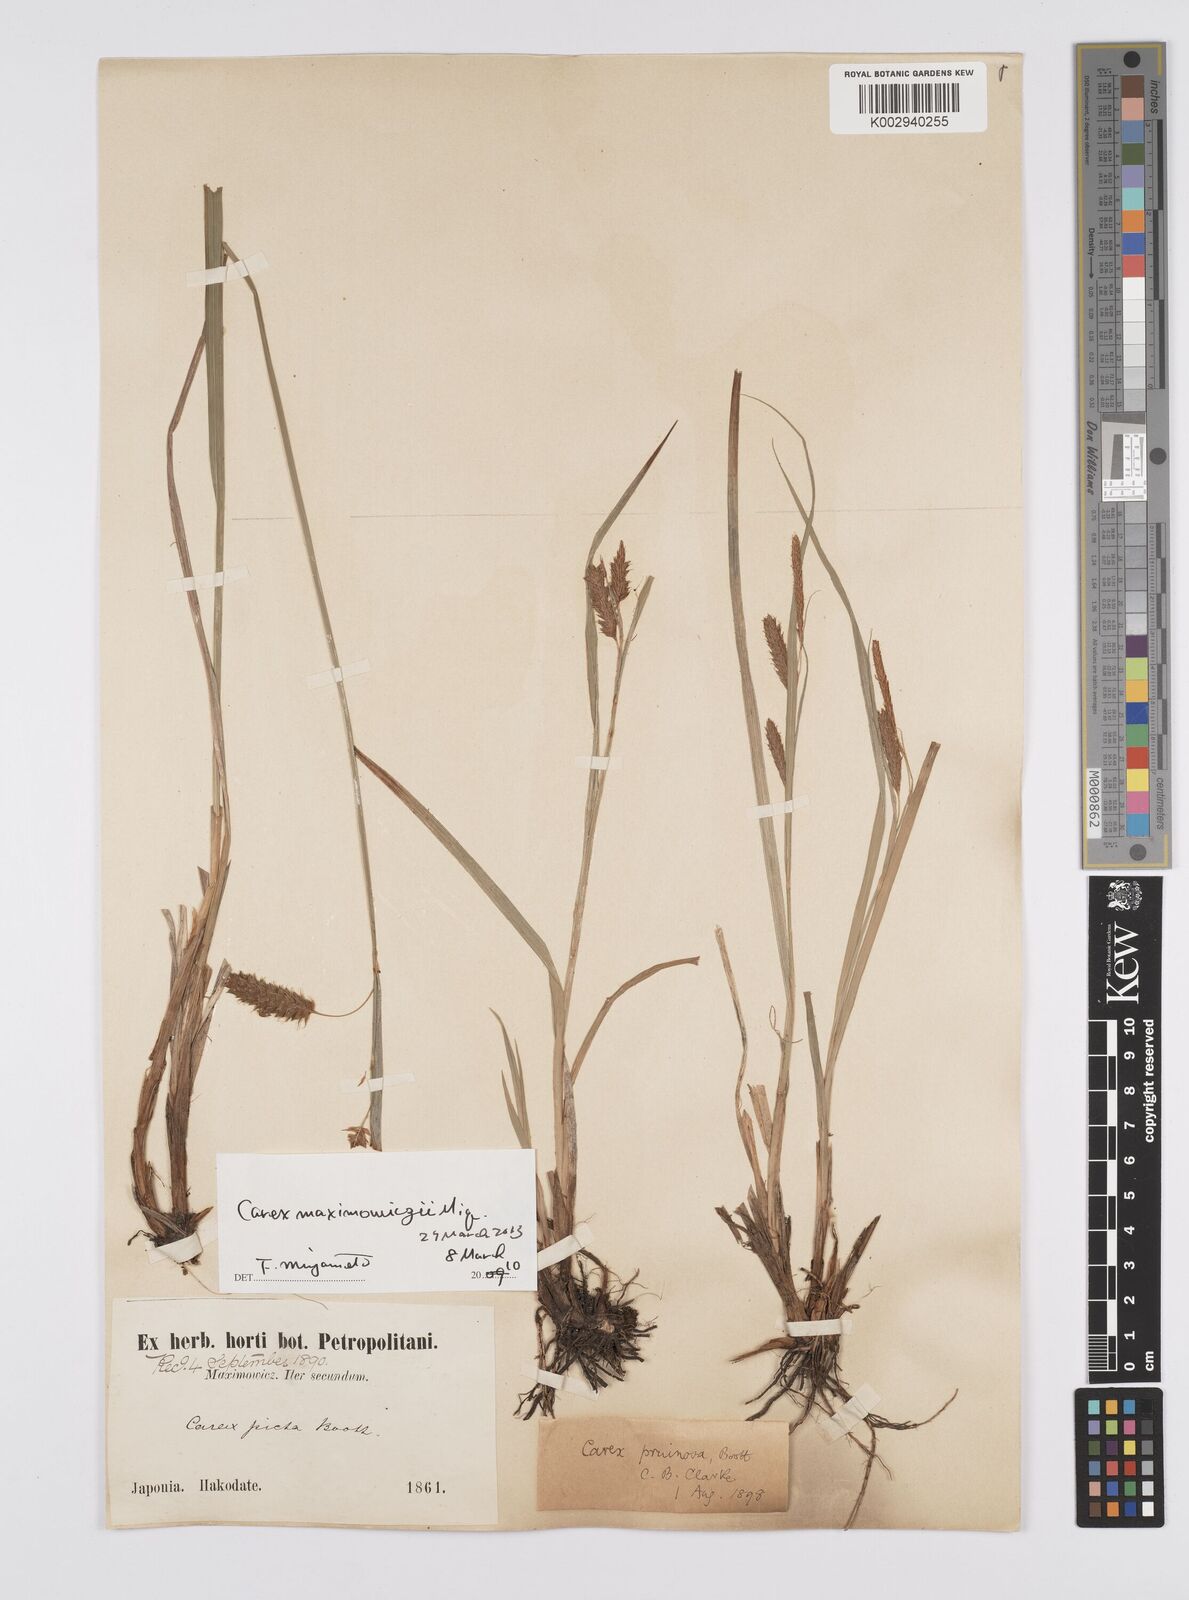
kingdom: Plantae
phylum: Tracheophyta
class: Liliopsida
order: Poales
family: Cyperaceae
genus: Carex
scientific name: Carex pruinosa
